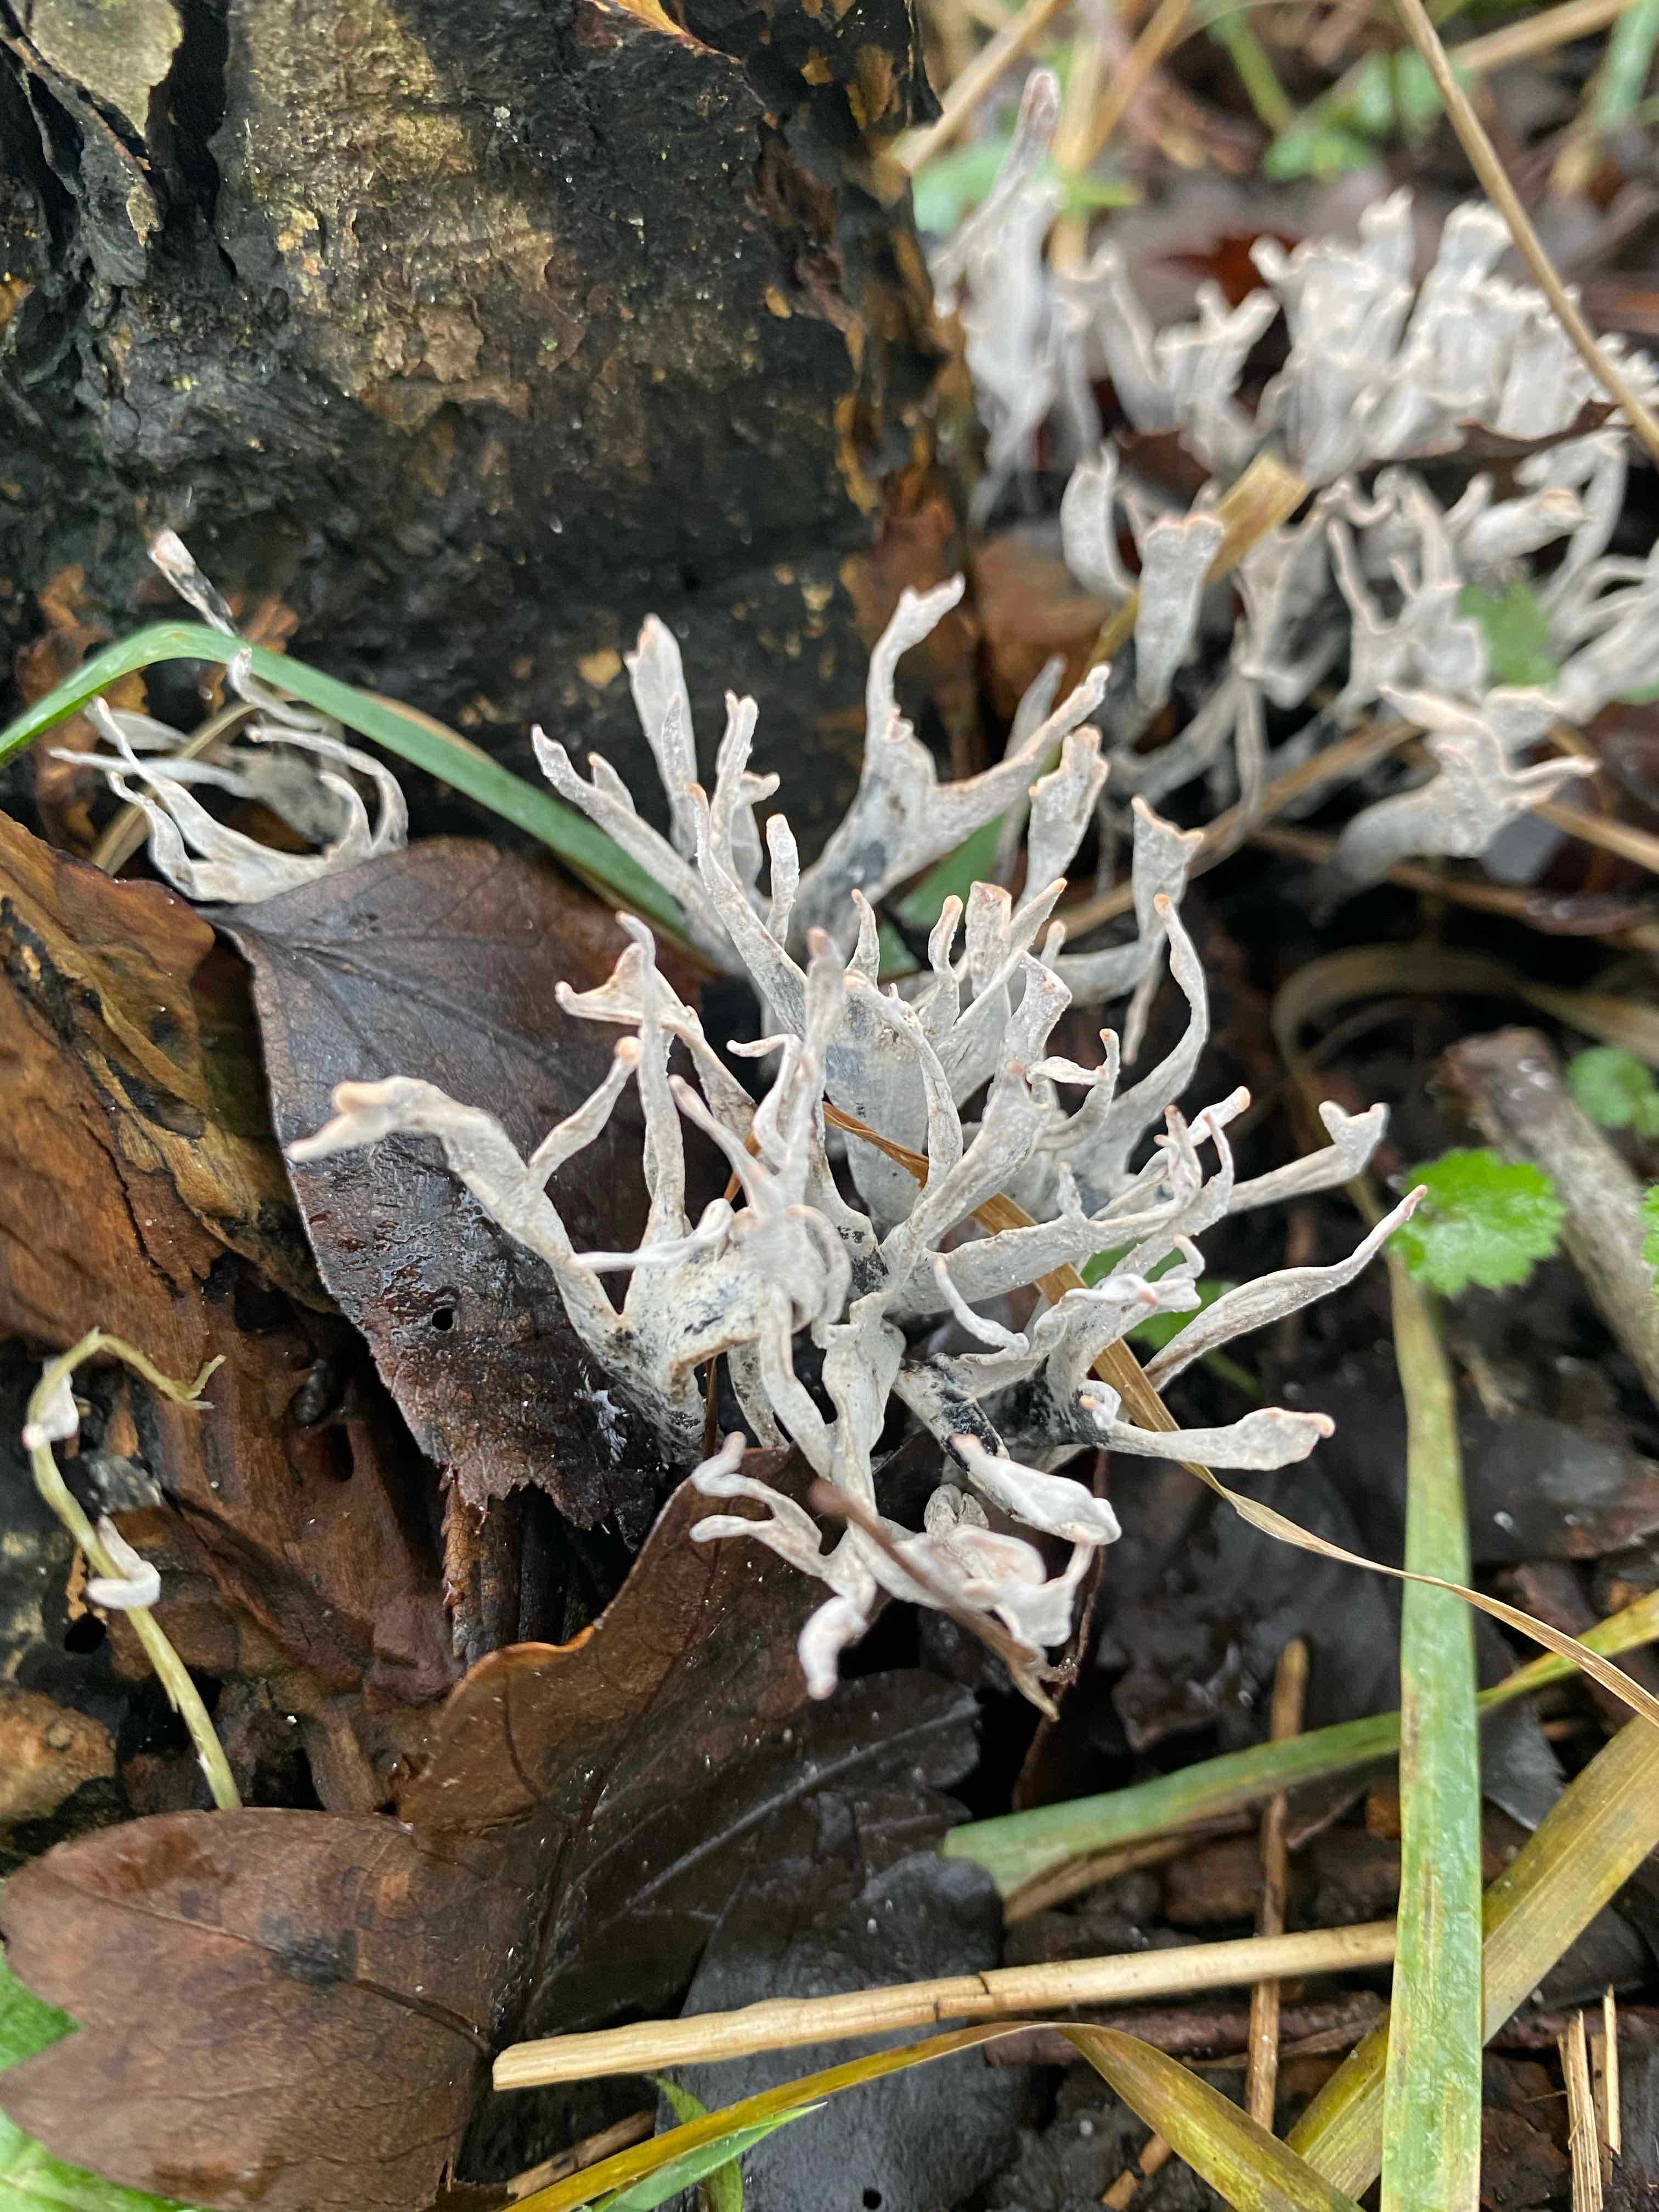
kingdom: Fungi
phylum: Ascomycota
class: Sordariomycetes
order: Xylariales
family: Xylariaceae
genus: Xylaria
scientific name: Xylaria hypoxylon
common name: grenet stødsvamp
